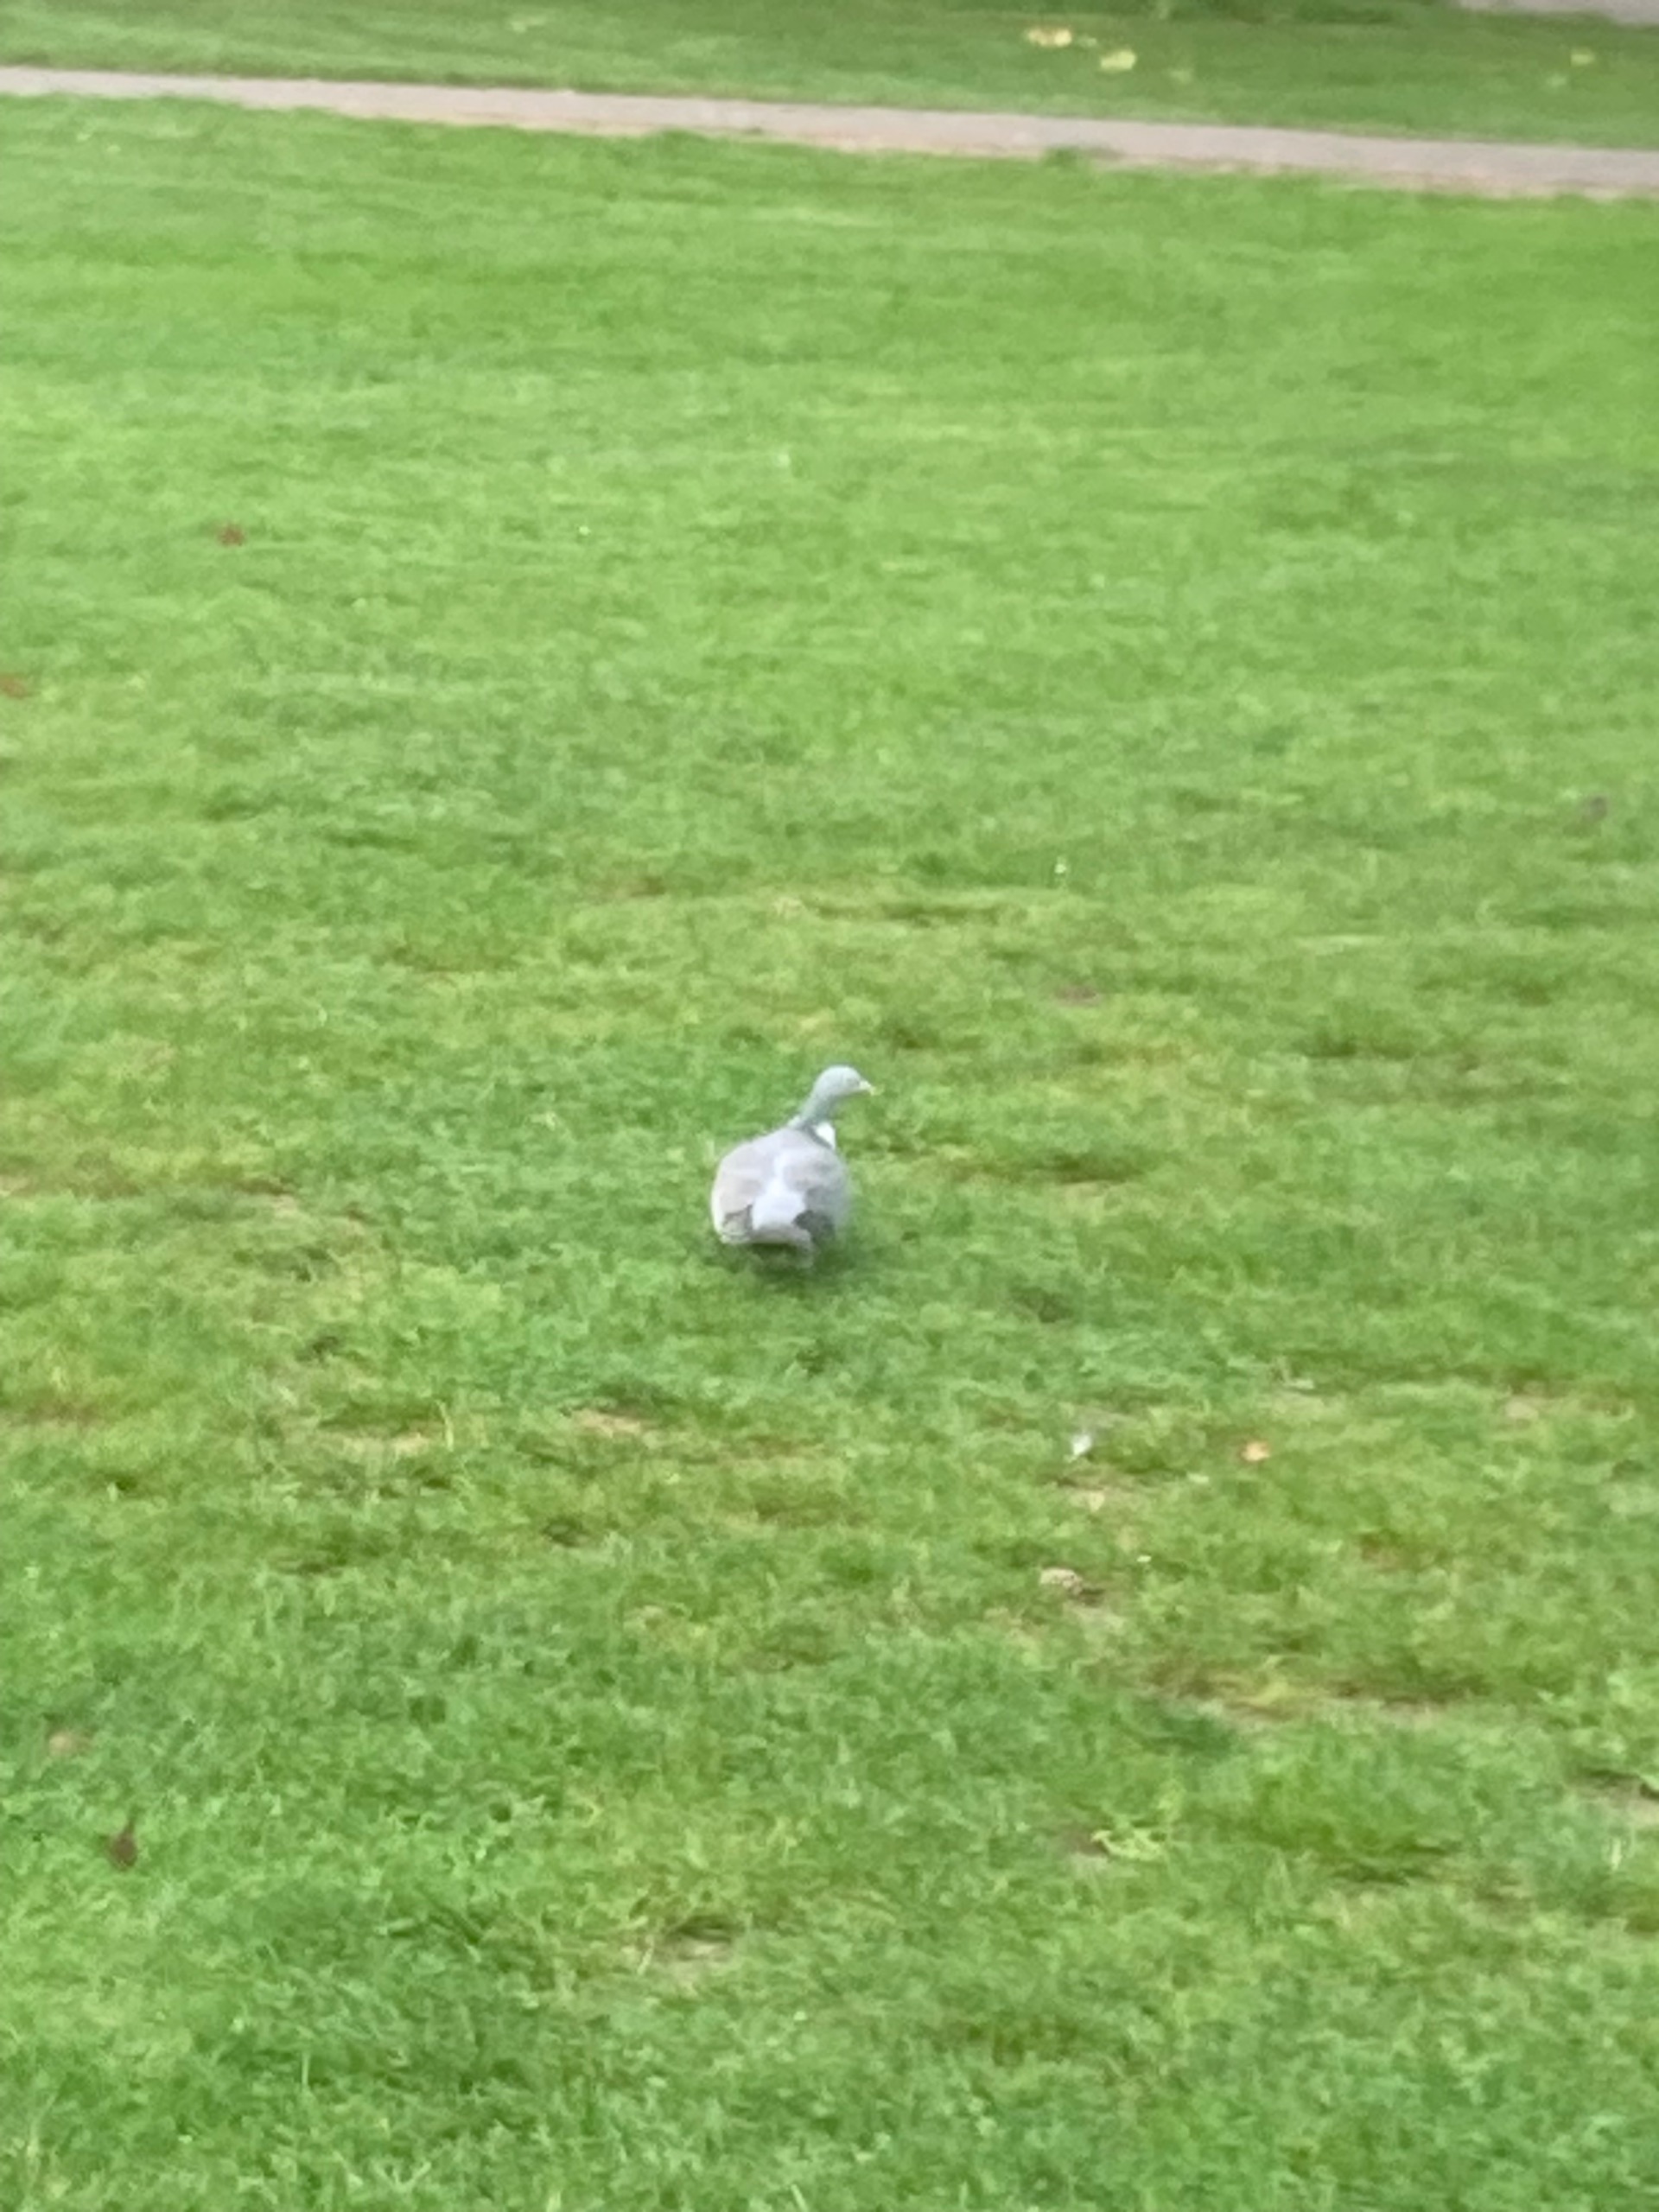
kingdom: Animalia
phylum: Chordata
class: Aves
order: Columbiformes
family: Columbidae
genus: Columba
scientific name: Columba palumbus
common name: Ringdue
